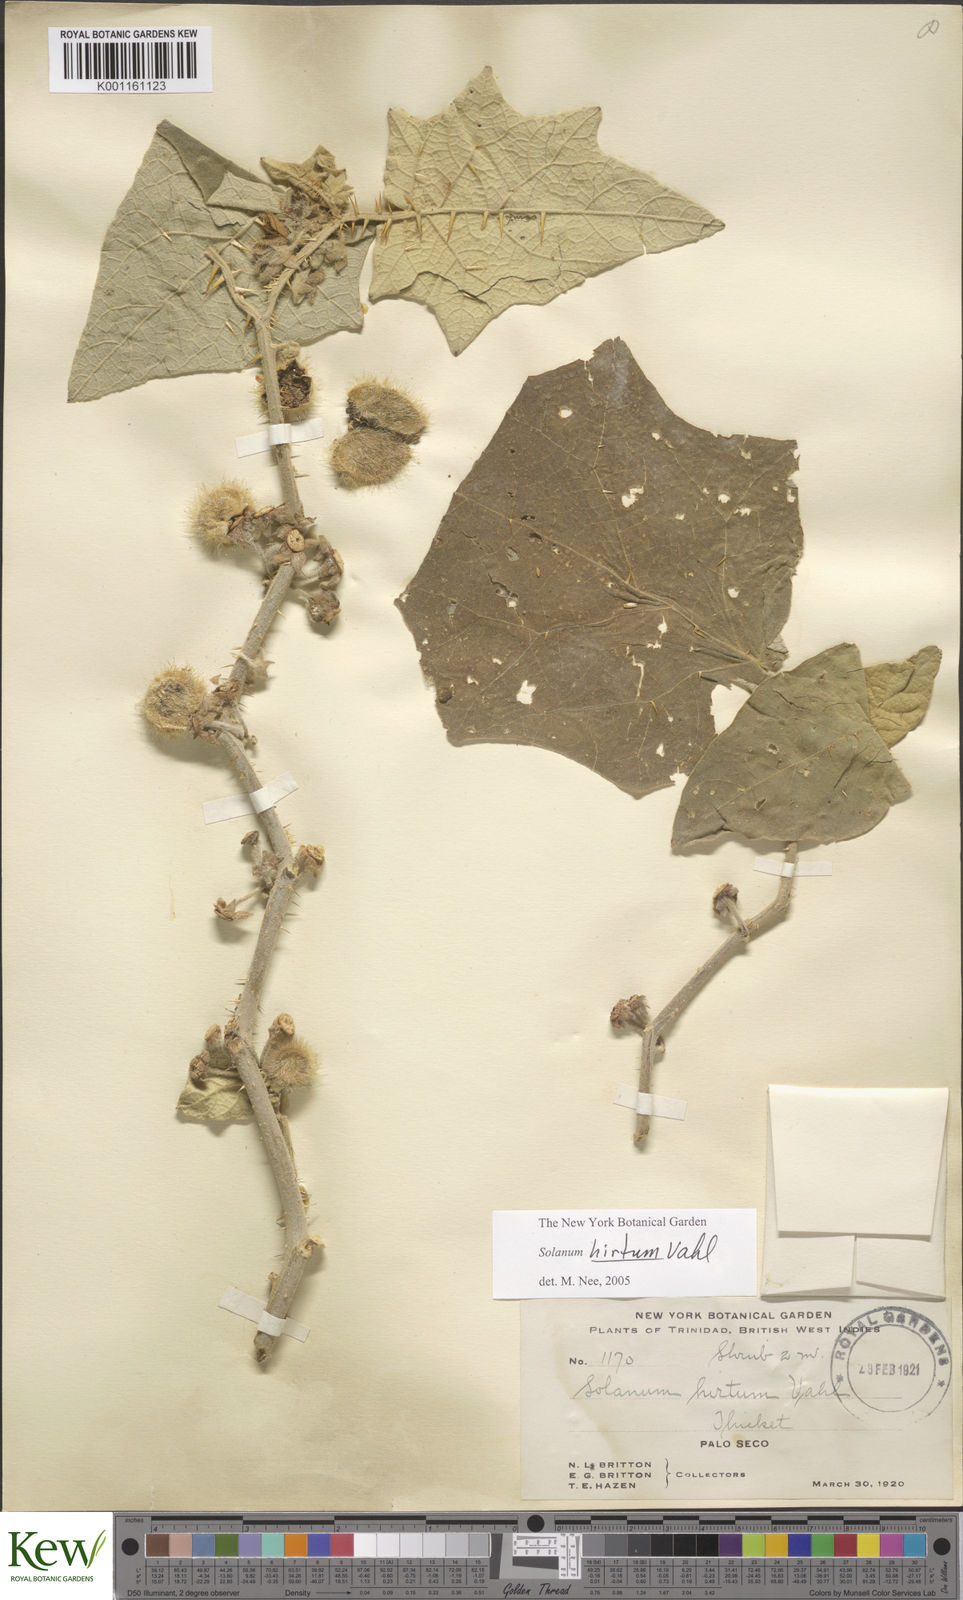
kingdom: Plantae
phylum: Tracheophyta
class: Magnoliopsida
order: Solanales
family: Solanaceae
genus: Solanum
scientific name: Solanum hirtum
